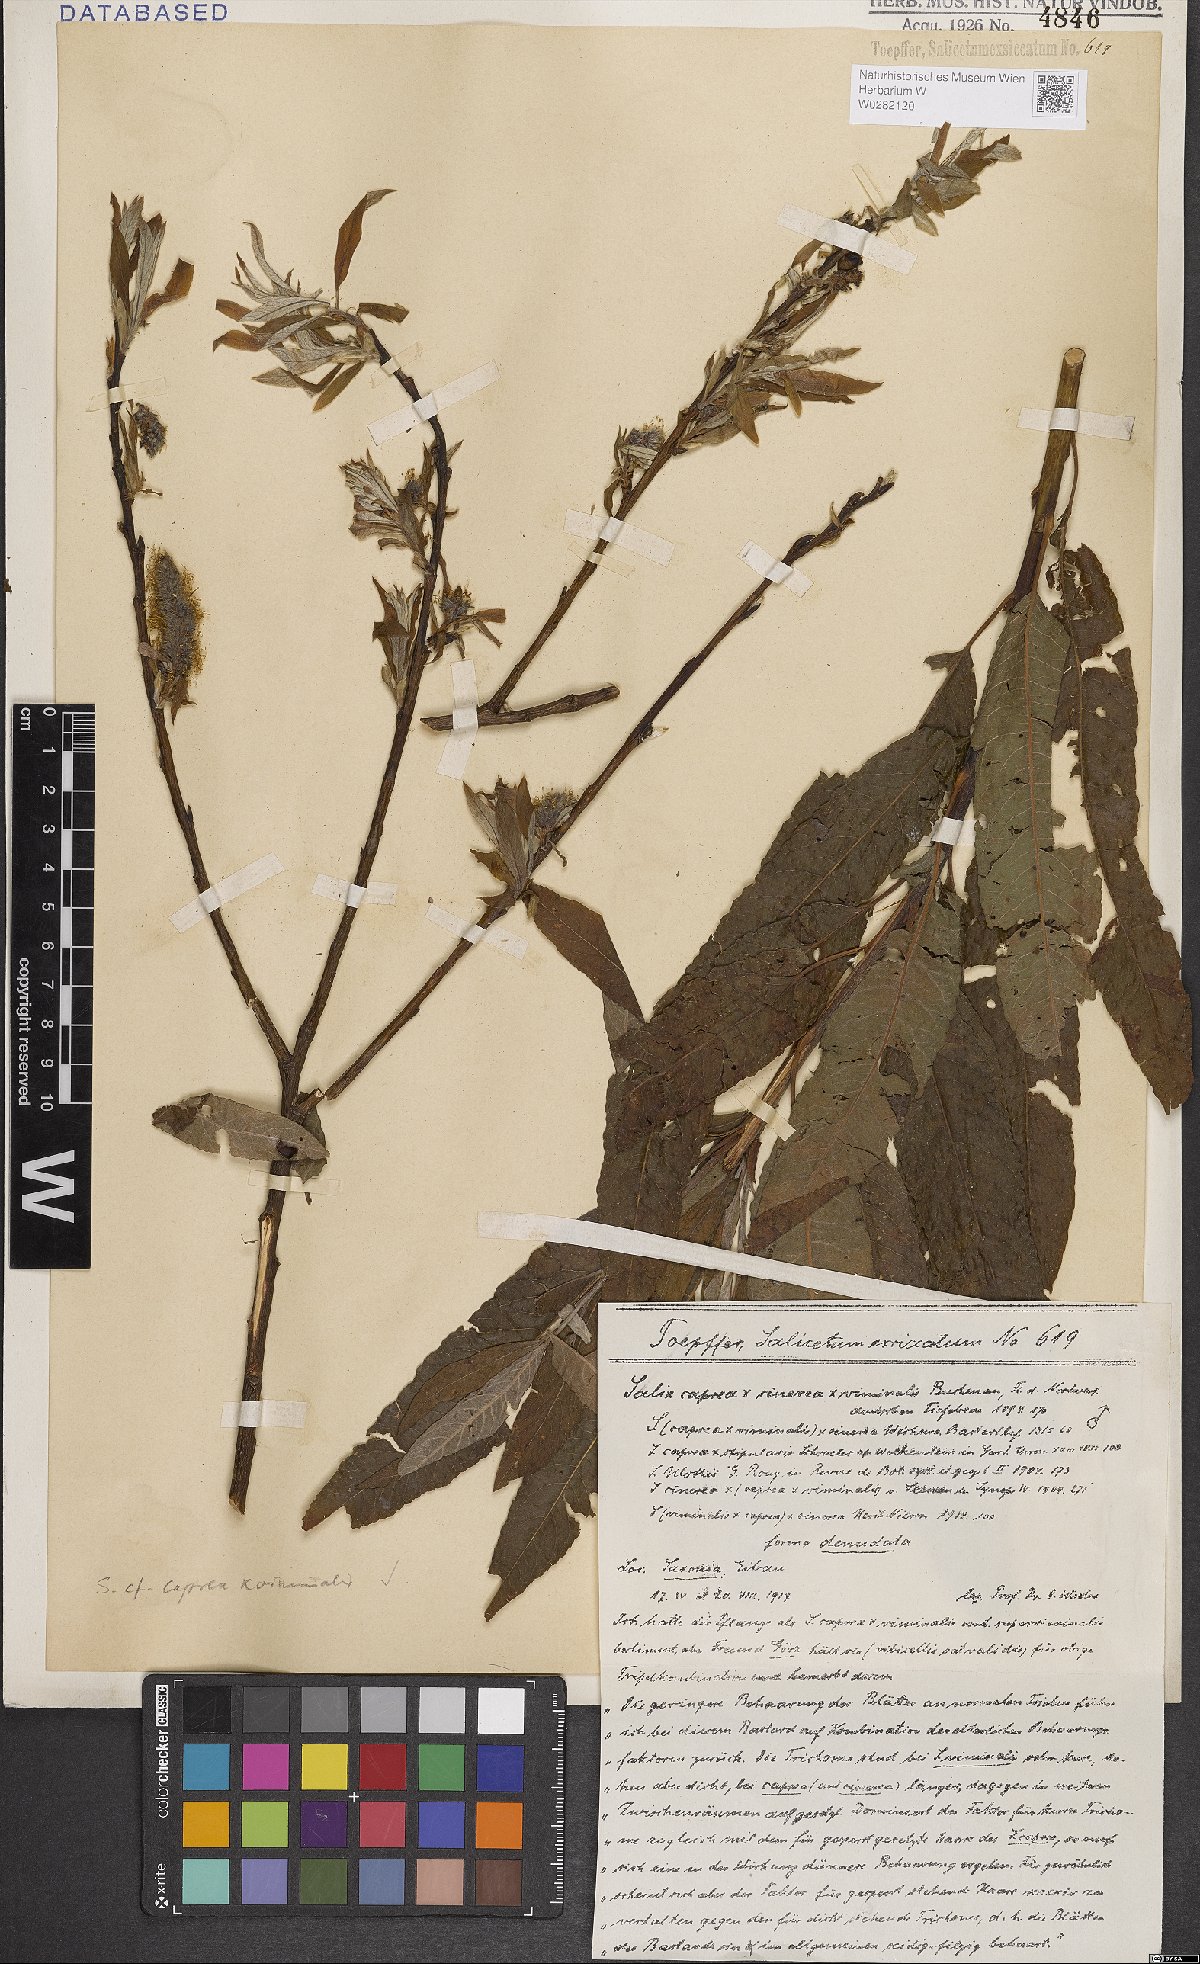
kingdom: Plantae
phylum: Tracheophyta
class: Magnoliopsida
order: Malpighiales
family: Salicaceae
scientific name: Salicaceae
